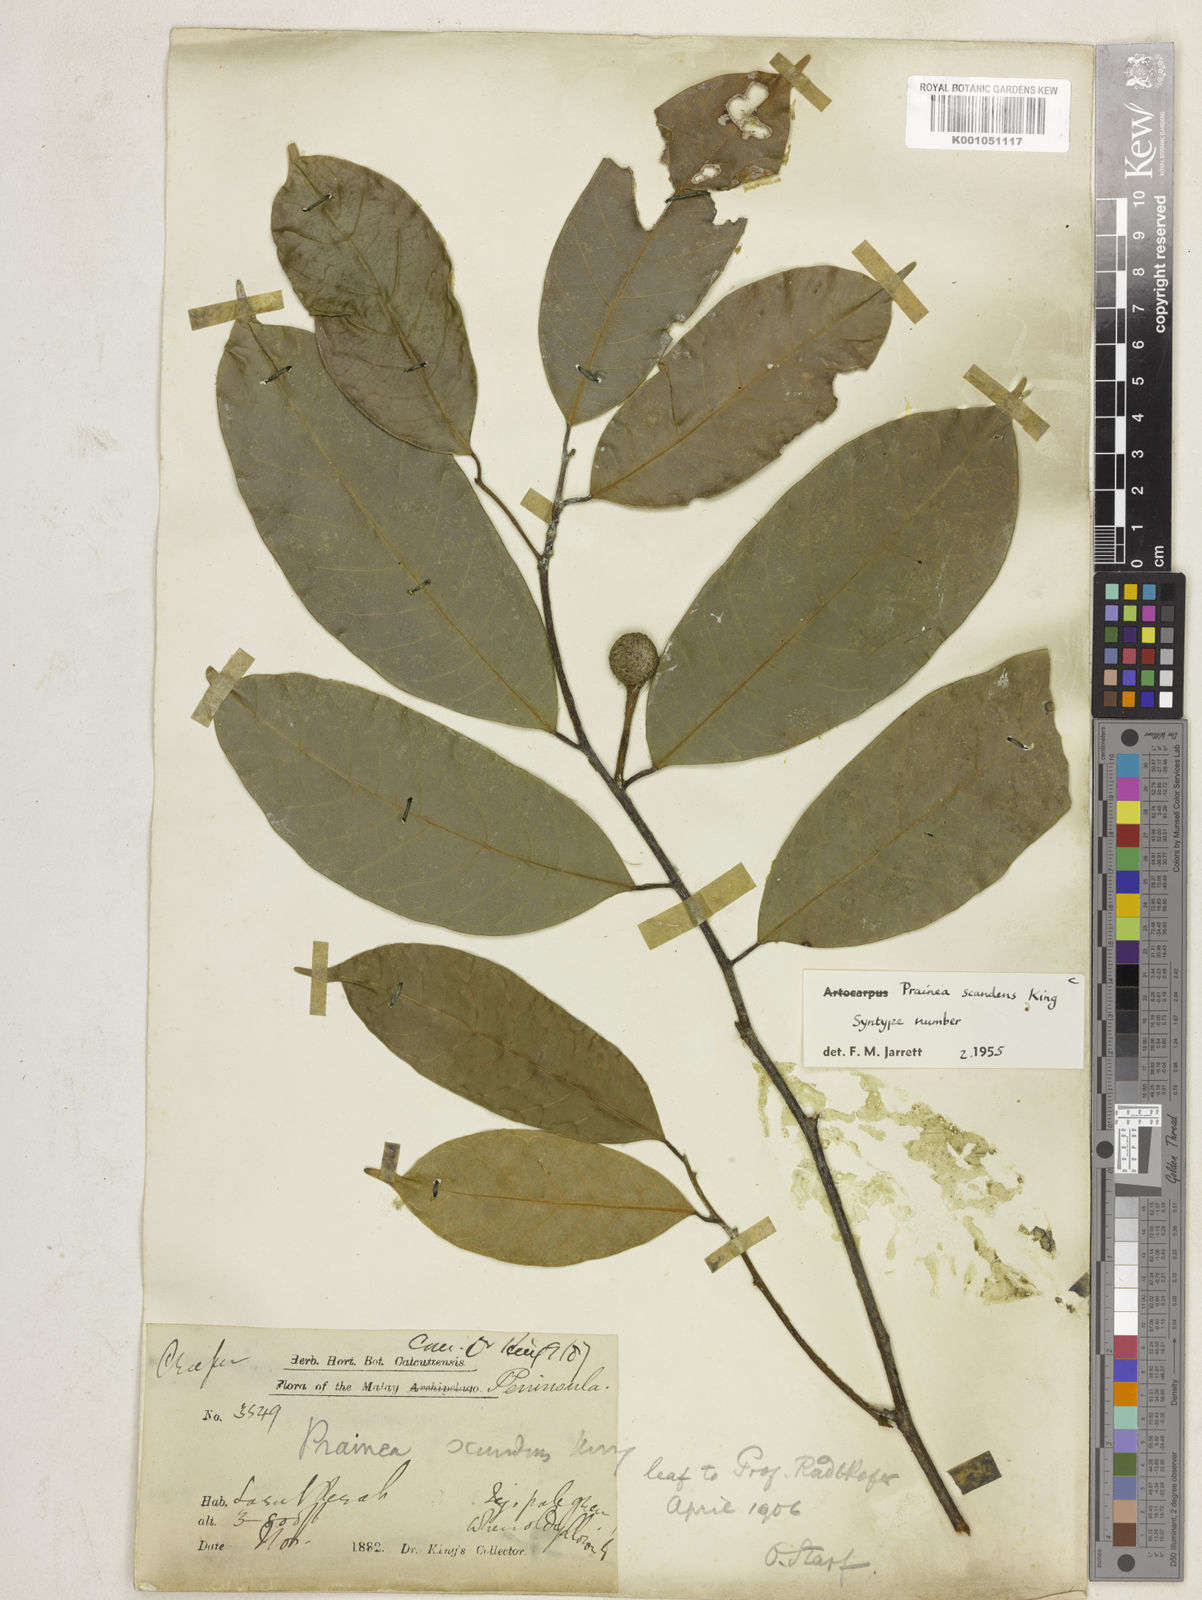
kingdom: Plantae
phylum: Tracheophyta
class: Magnoliopsida
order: Rosales
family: Moraceae
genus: Prainea
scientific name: Prainea scandens
